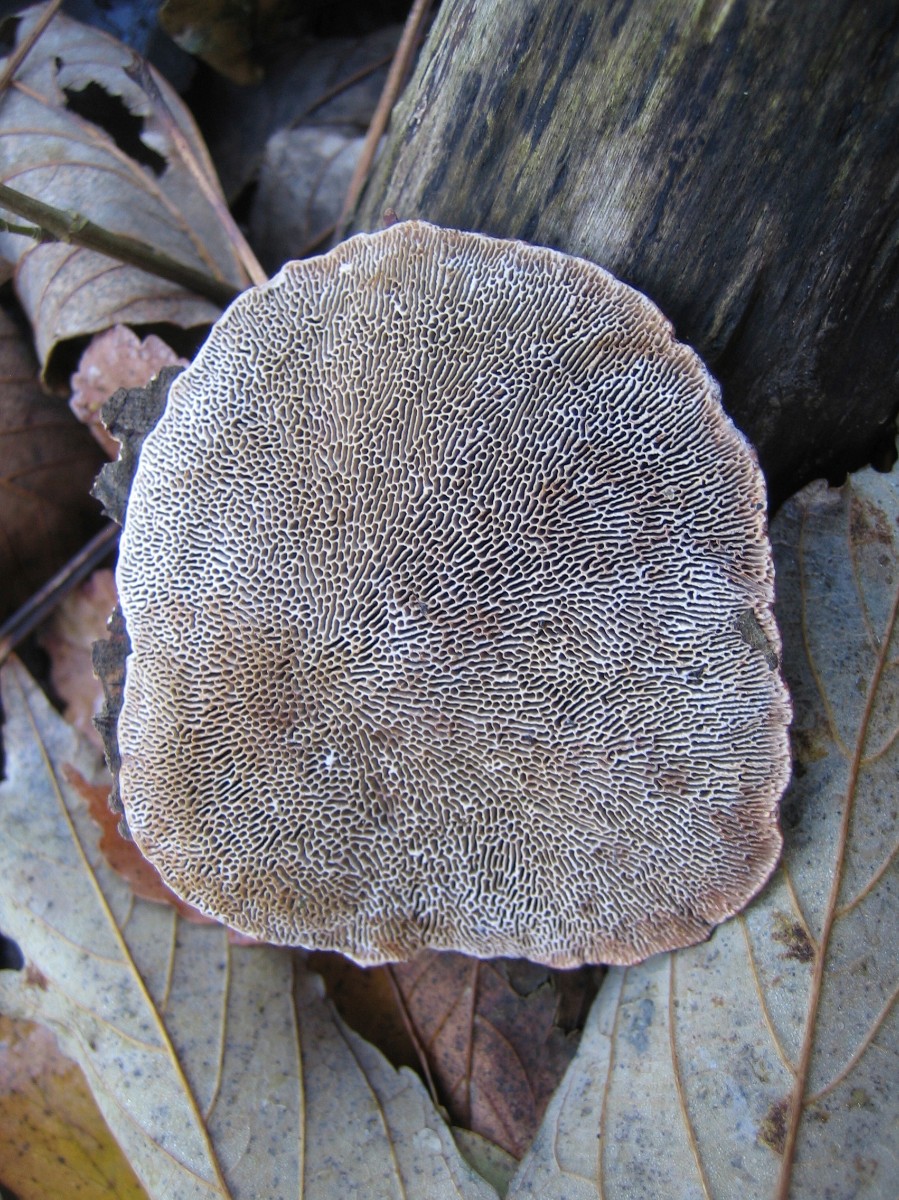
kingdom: Fungi
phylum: Basidiomycota
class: Agaricomycetes
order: Polyporales
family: Polyporaceae
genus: Daedaleopsis
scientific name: Daedaleopsis confragosa
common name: rødmende læderporesvamp
